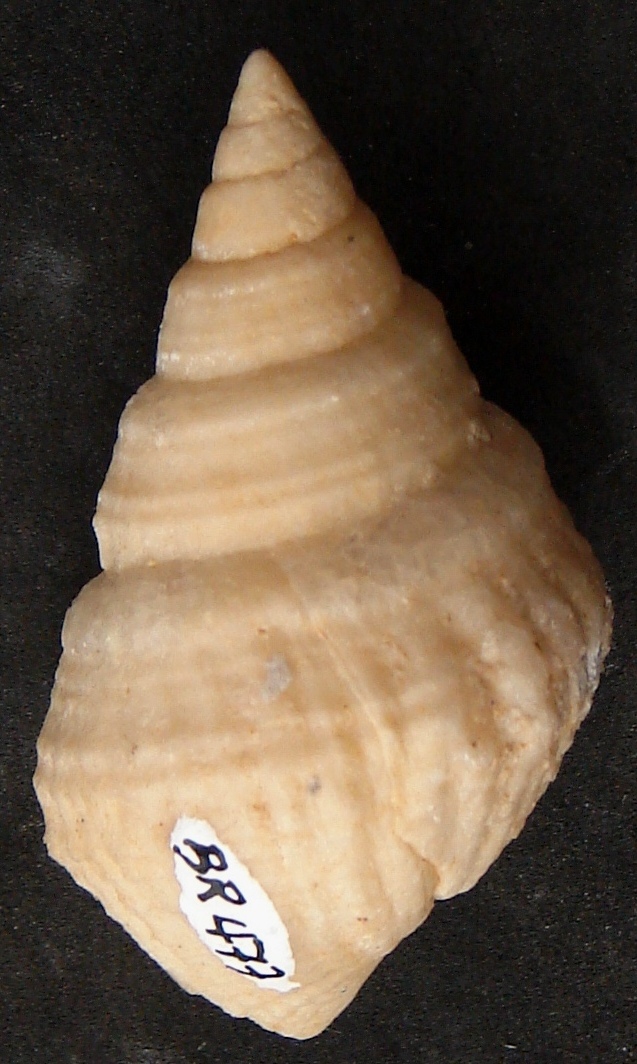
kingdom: Animalia
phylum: Mollusca
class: Gastropoda
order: Neogastropoda
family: Purpurinidae
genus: Microschiza
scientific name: Microschiza
